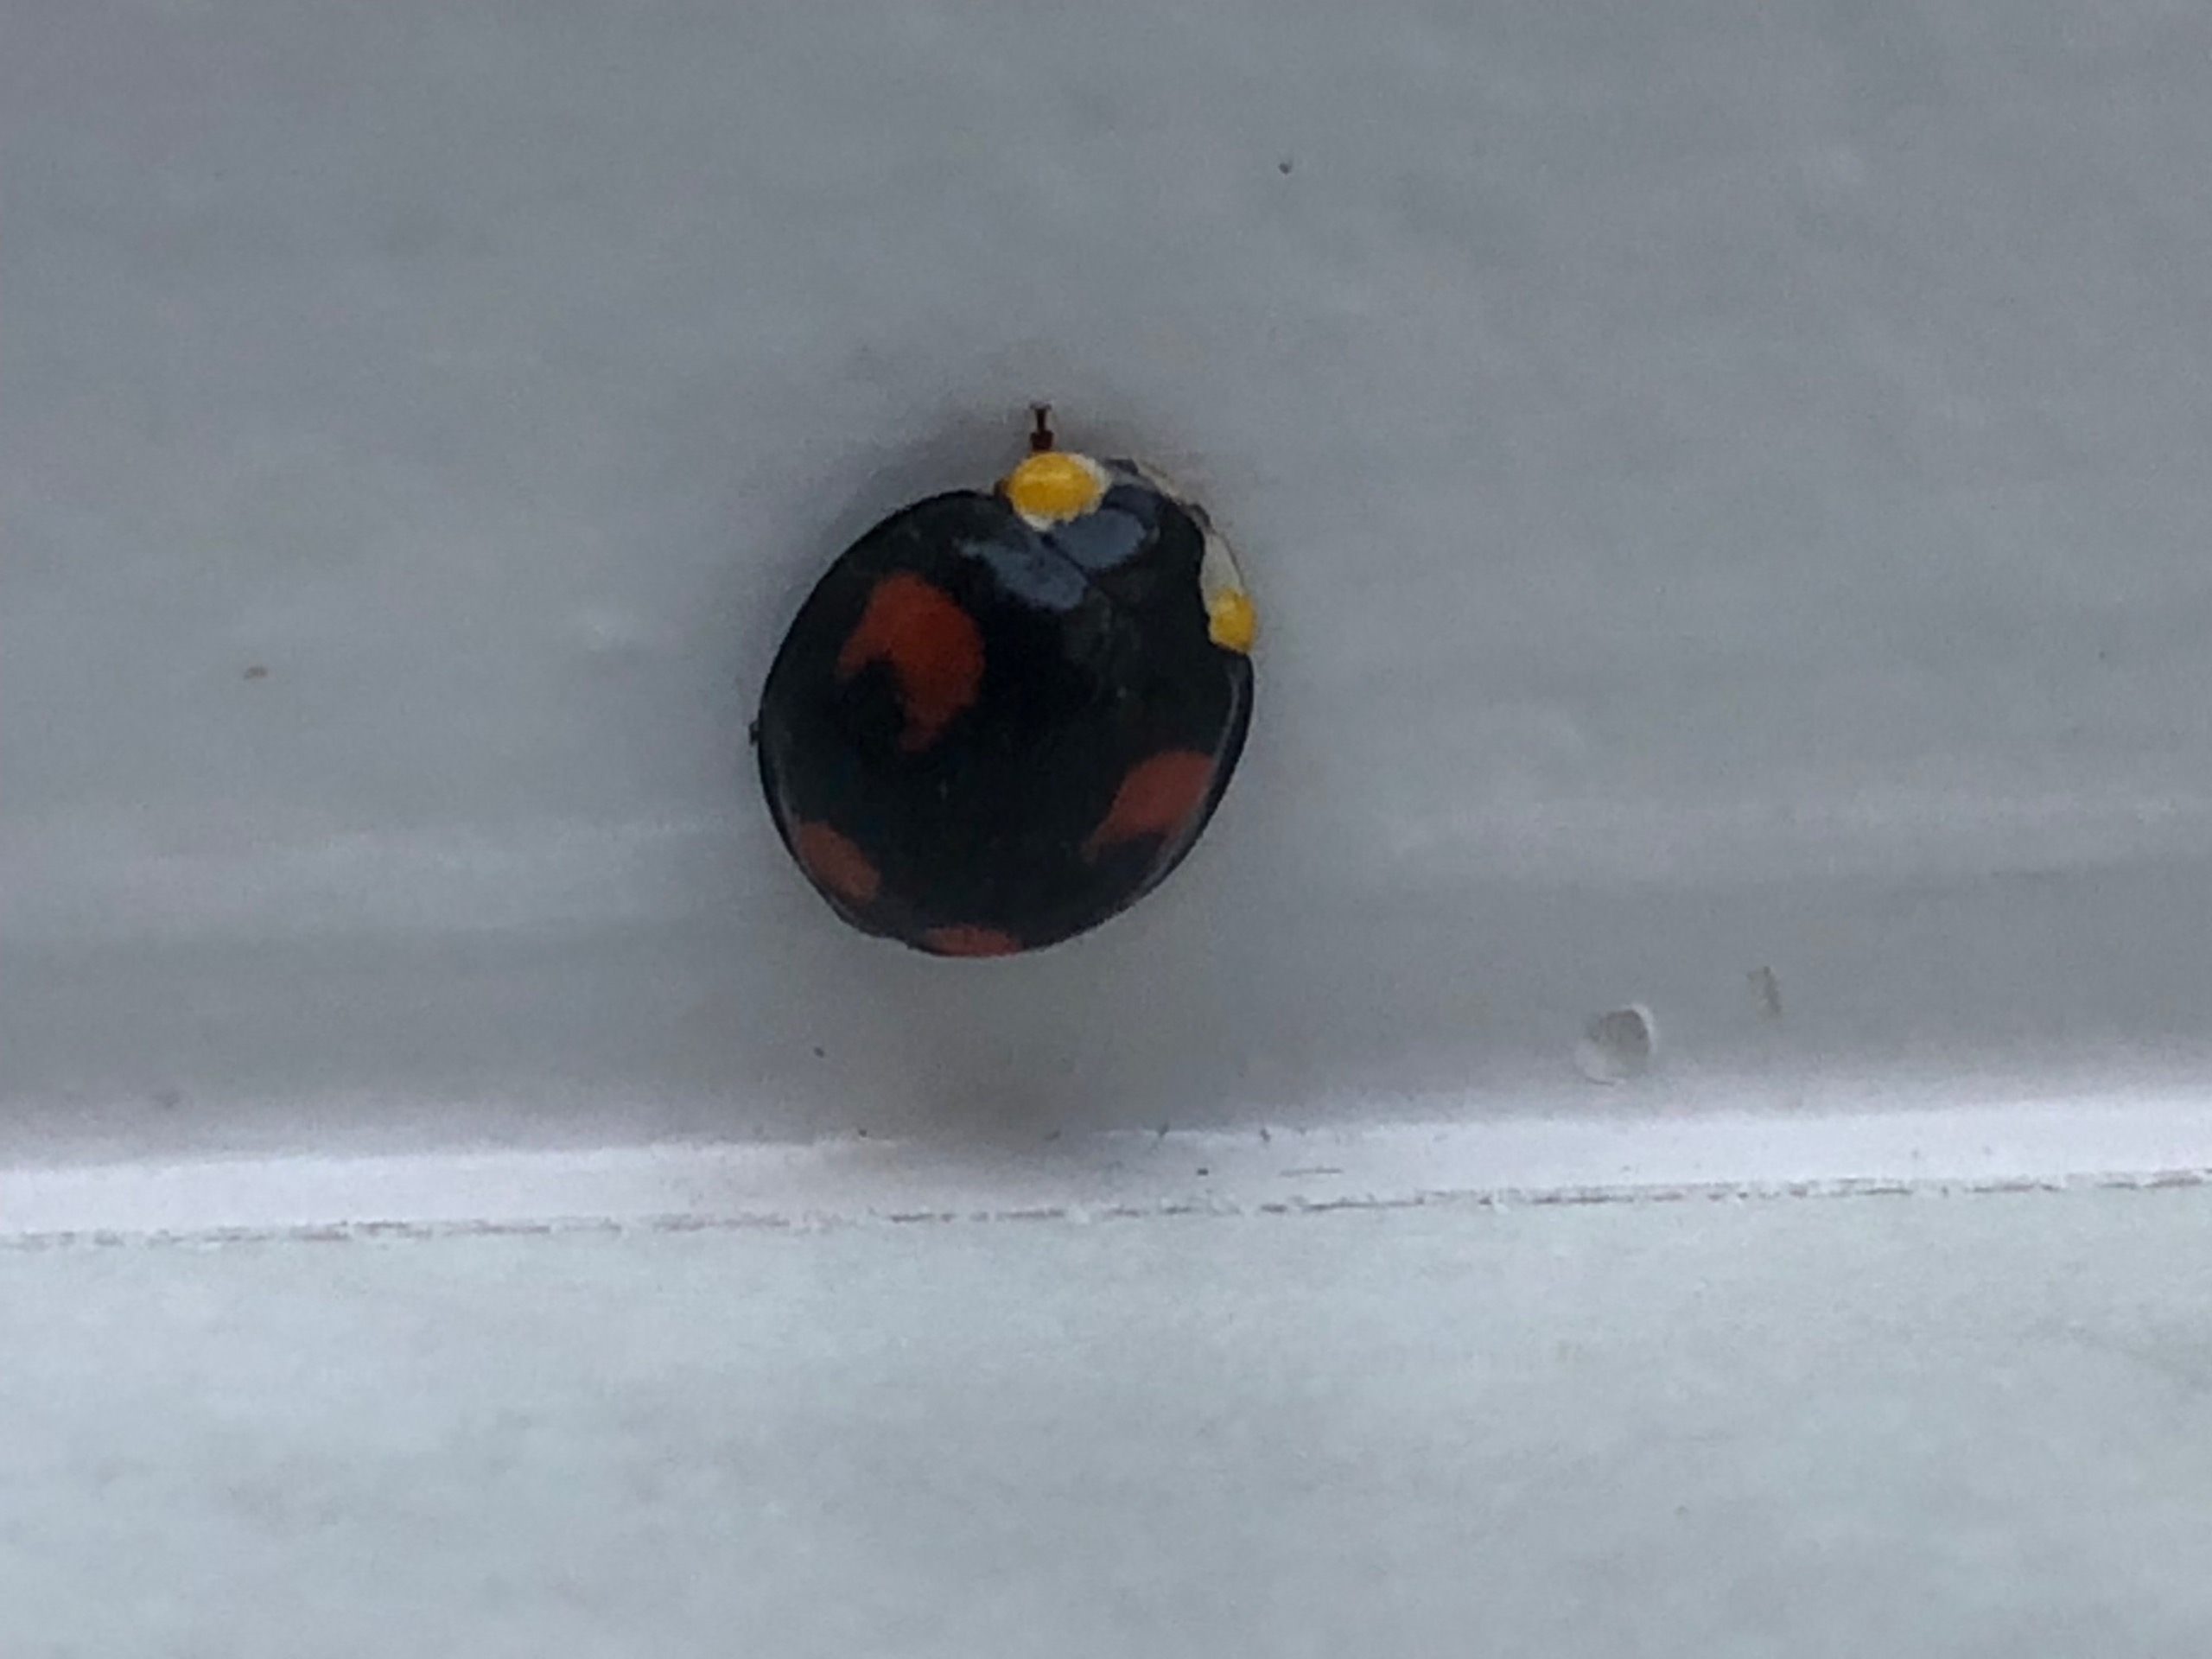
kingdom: Animalia
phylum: Arthropoda
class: Insecta
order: Coleoptera
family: Coccinellidae
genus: Harmonia
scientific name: Harmonia axyridis
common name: Harlekinmariehøne
